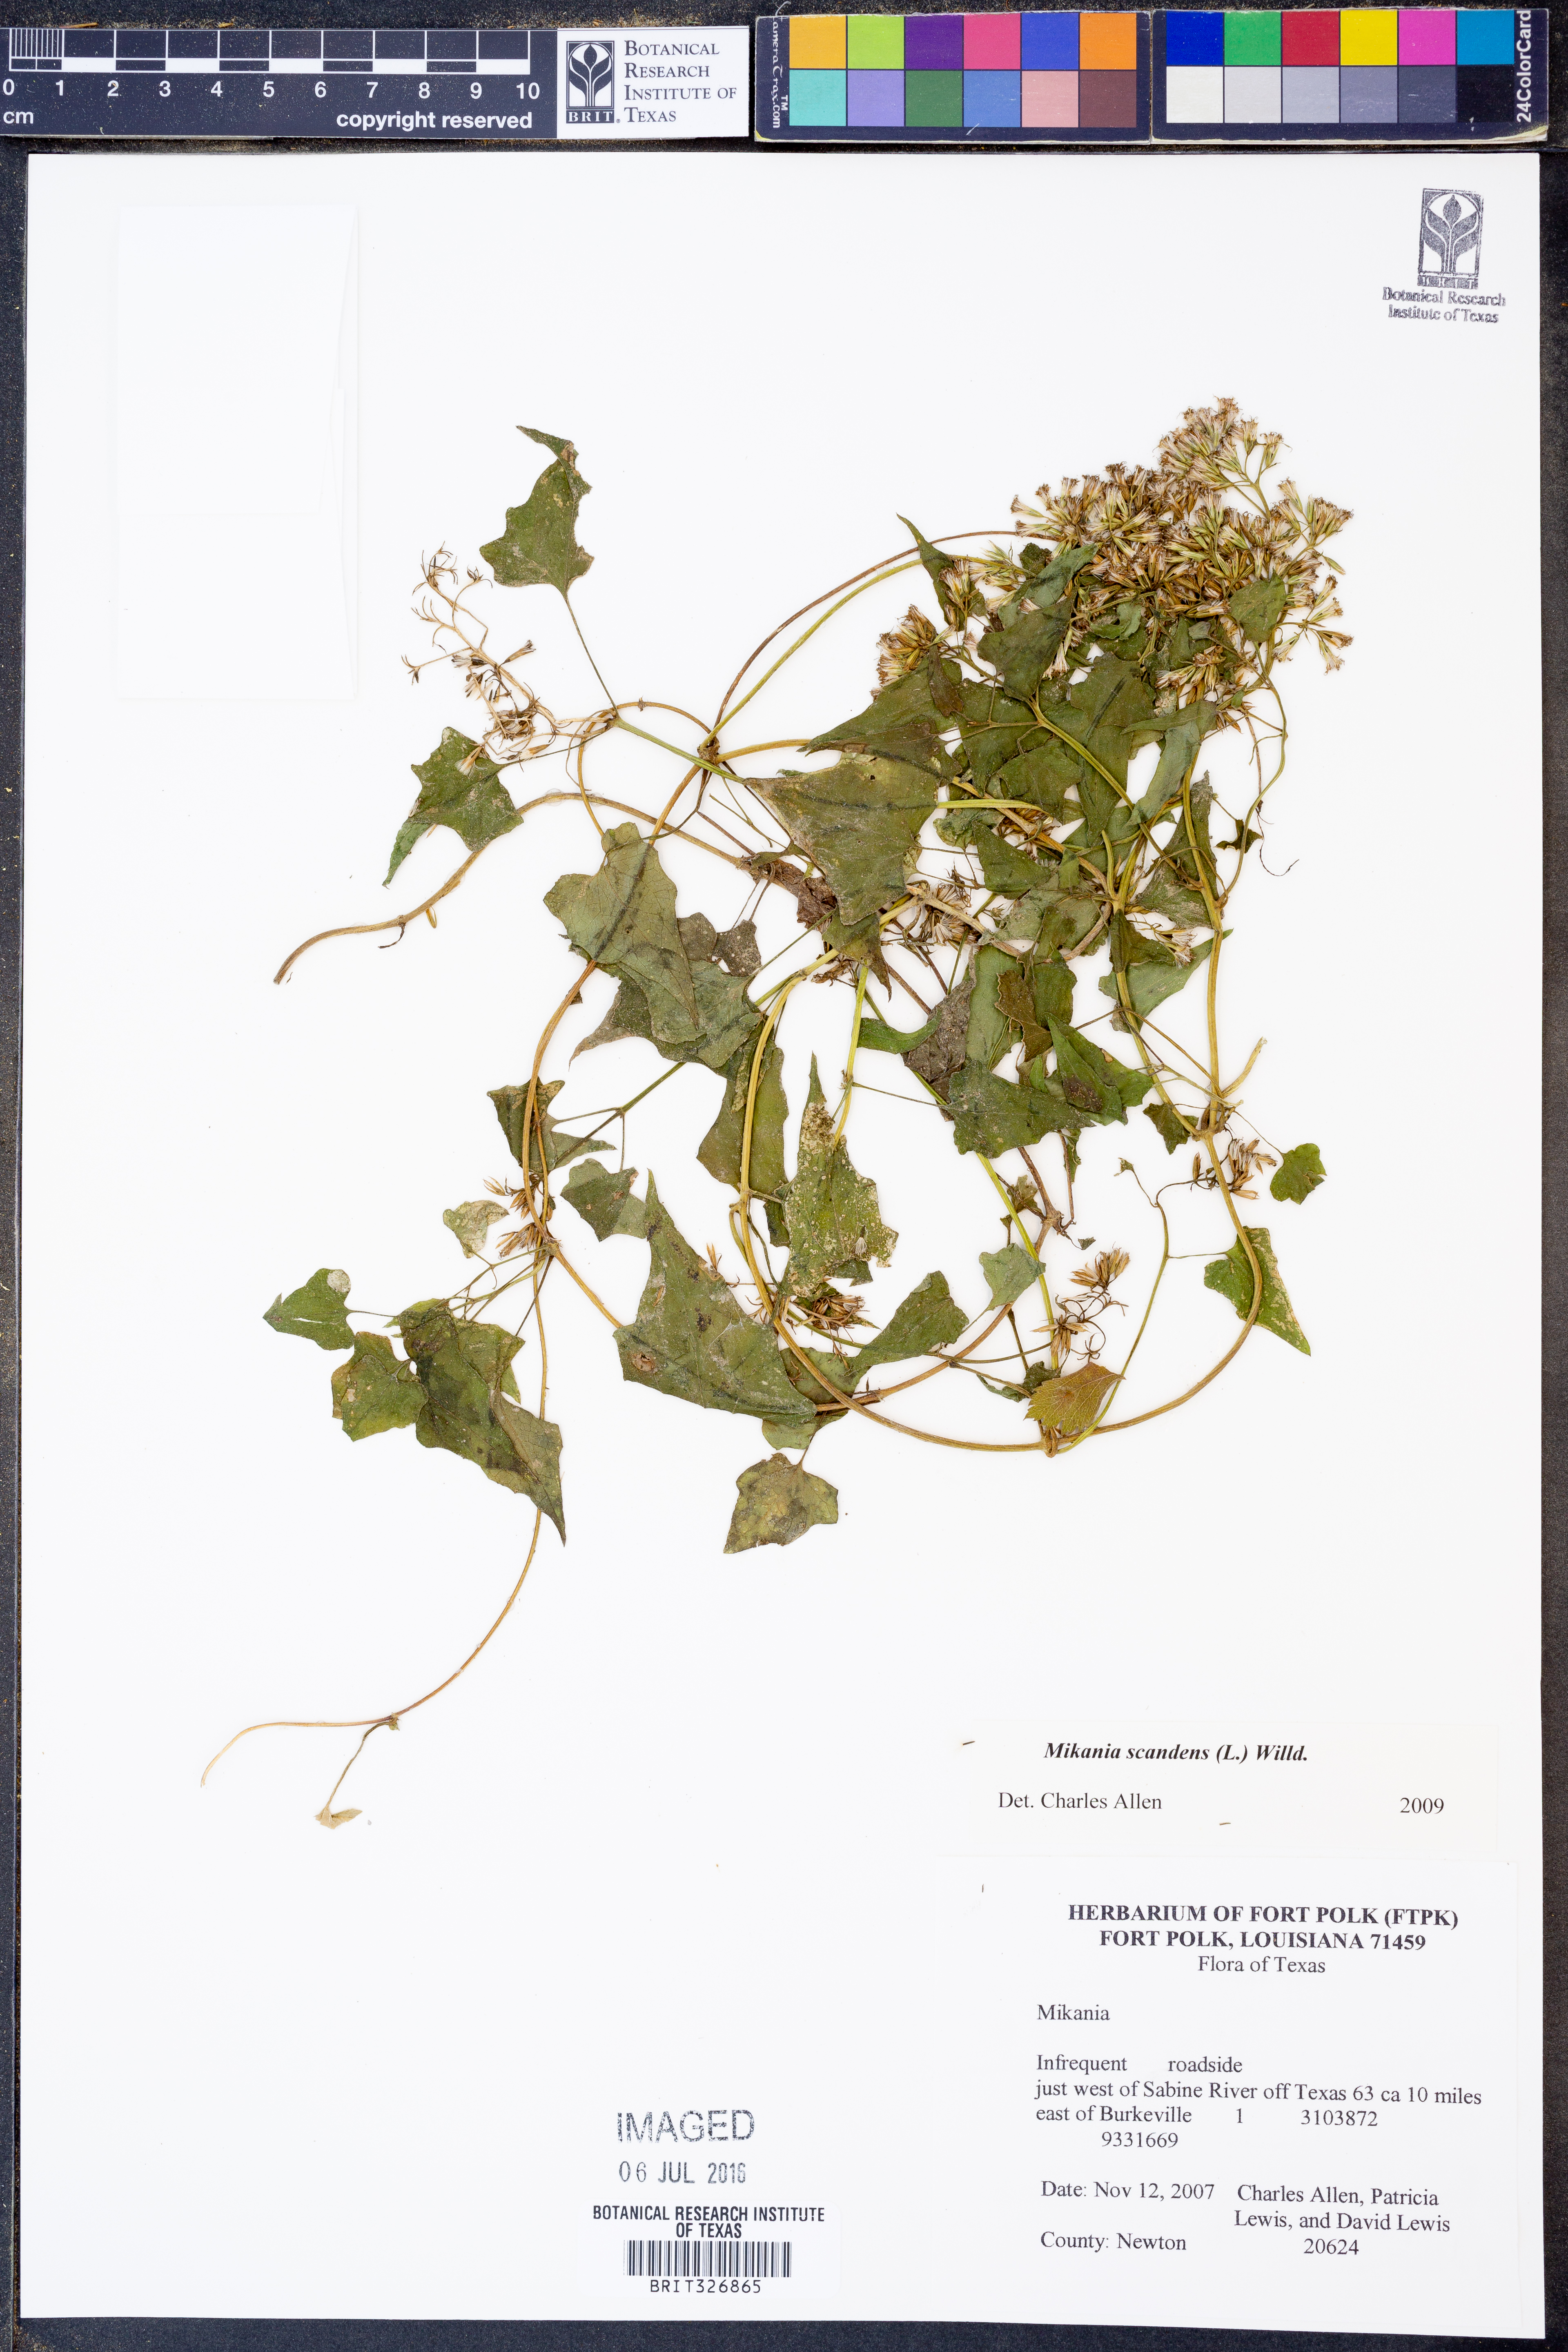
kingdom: Plantae
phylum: Tracheophyta
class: Magnoliopsida
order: Asterales
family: Asteraceae
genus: Mikania
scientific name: Mikania scandens
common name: Climbing hempvine
